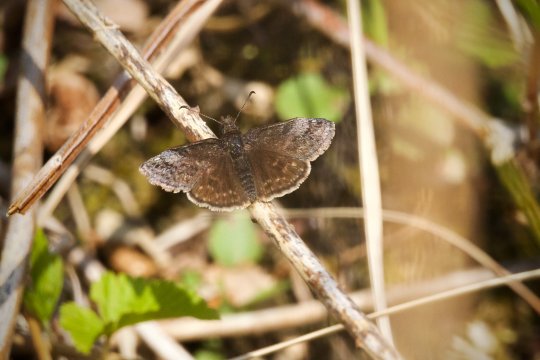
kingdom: Animalia
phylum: Arthropoda
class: Insecta
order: Lepidoptera
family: Hesperiidae
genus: Erynnis
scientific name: Erynnis icelus
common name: Dreamy Duskywing
